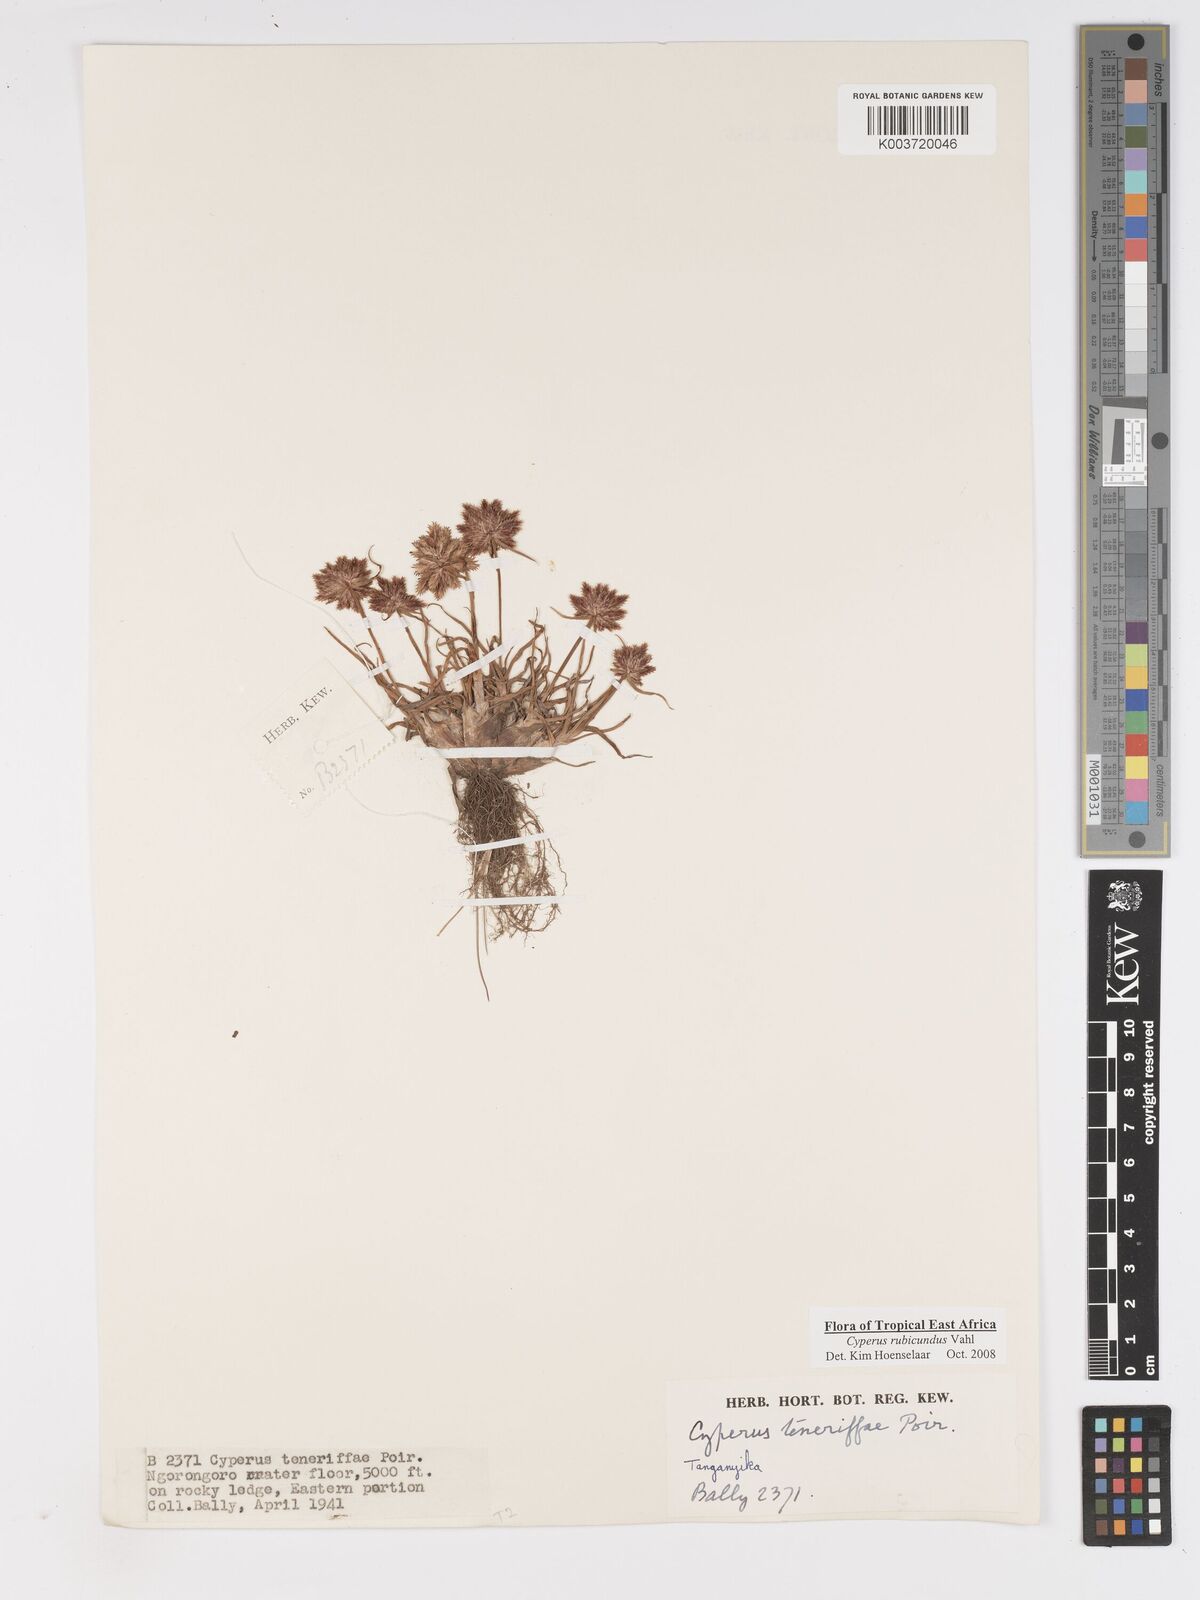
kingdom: Plantae
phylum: Tracheophyta
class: Liliopsida
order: Poales
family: Cyperaceae
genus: Cyperus
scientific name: Cyperus rubicundus
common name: Coco-grass
